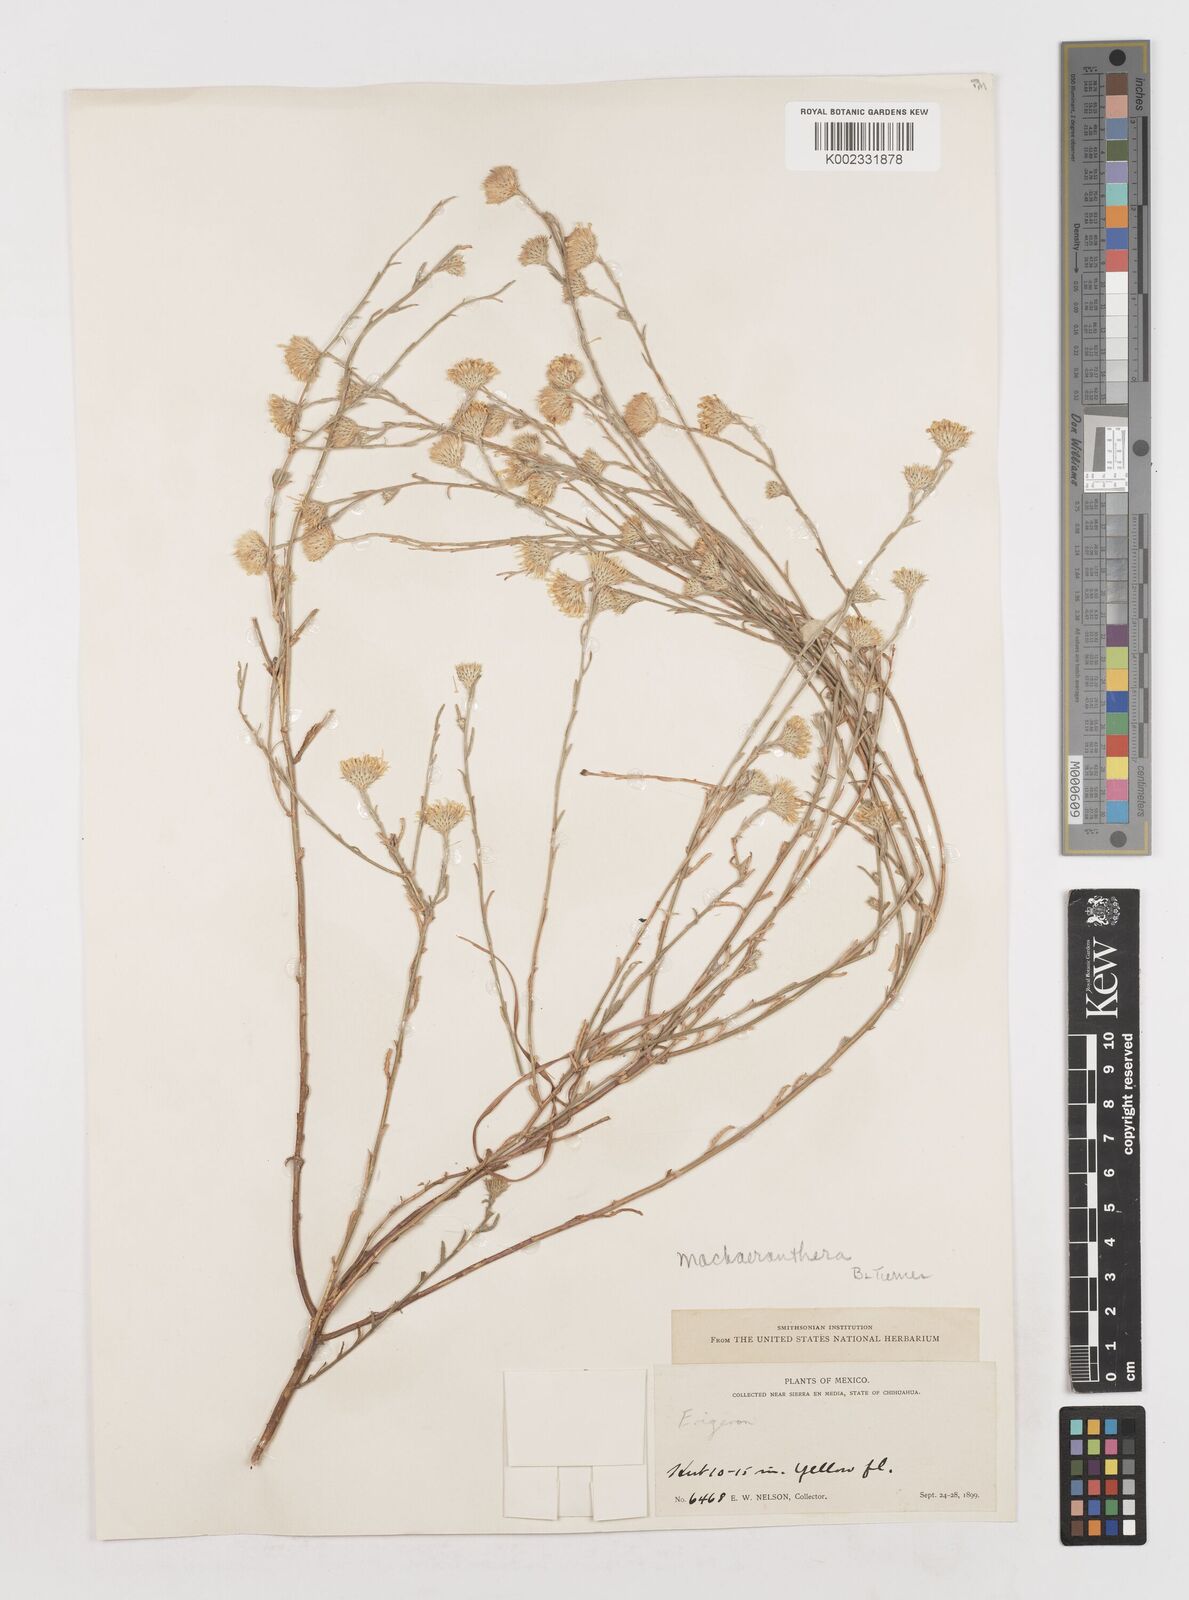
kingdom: Plantae
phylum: Tracheophyta
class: Magnoliopsida
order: Asterales
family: Asteraceae
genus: Erigeron
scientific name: Erigeron
